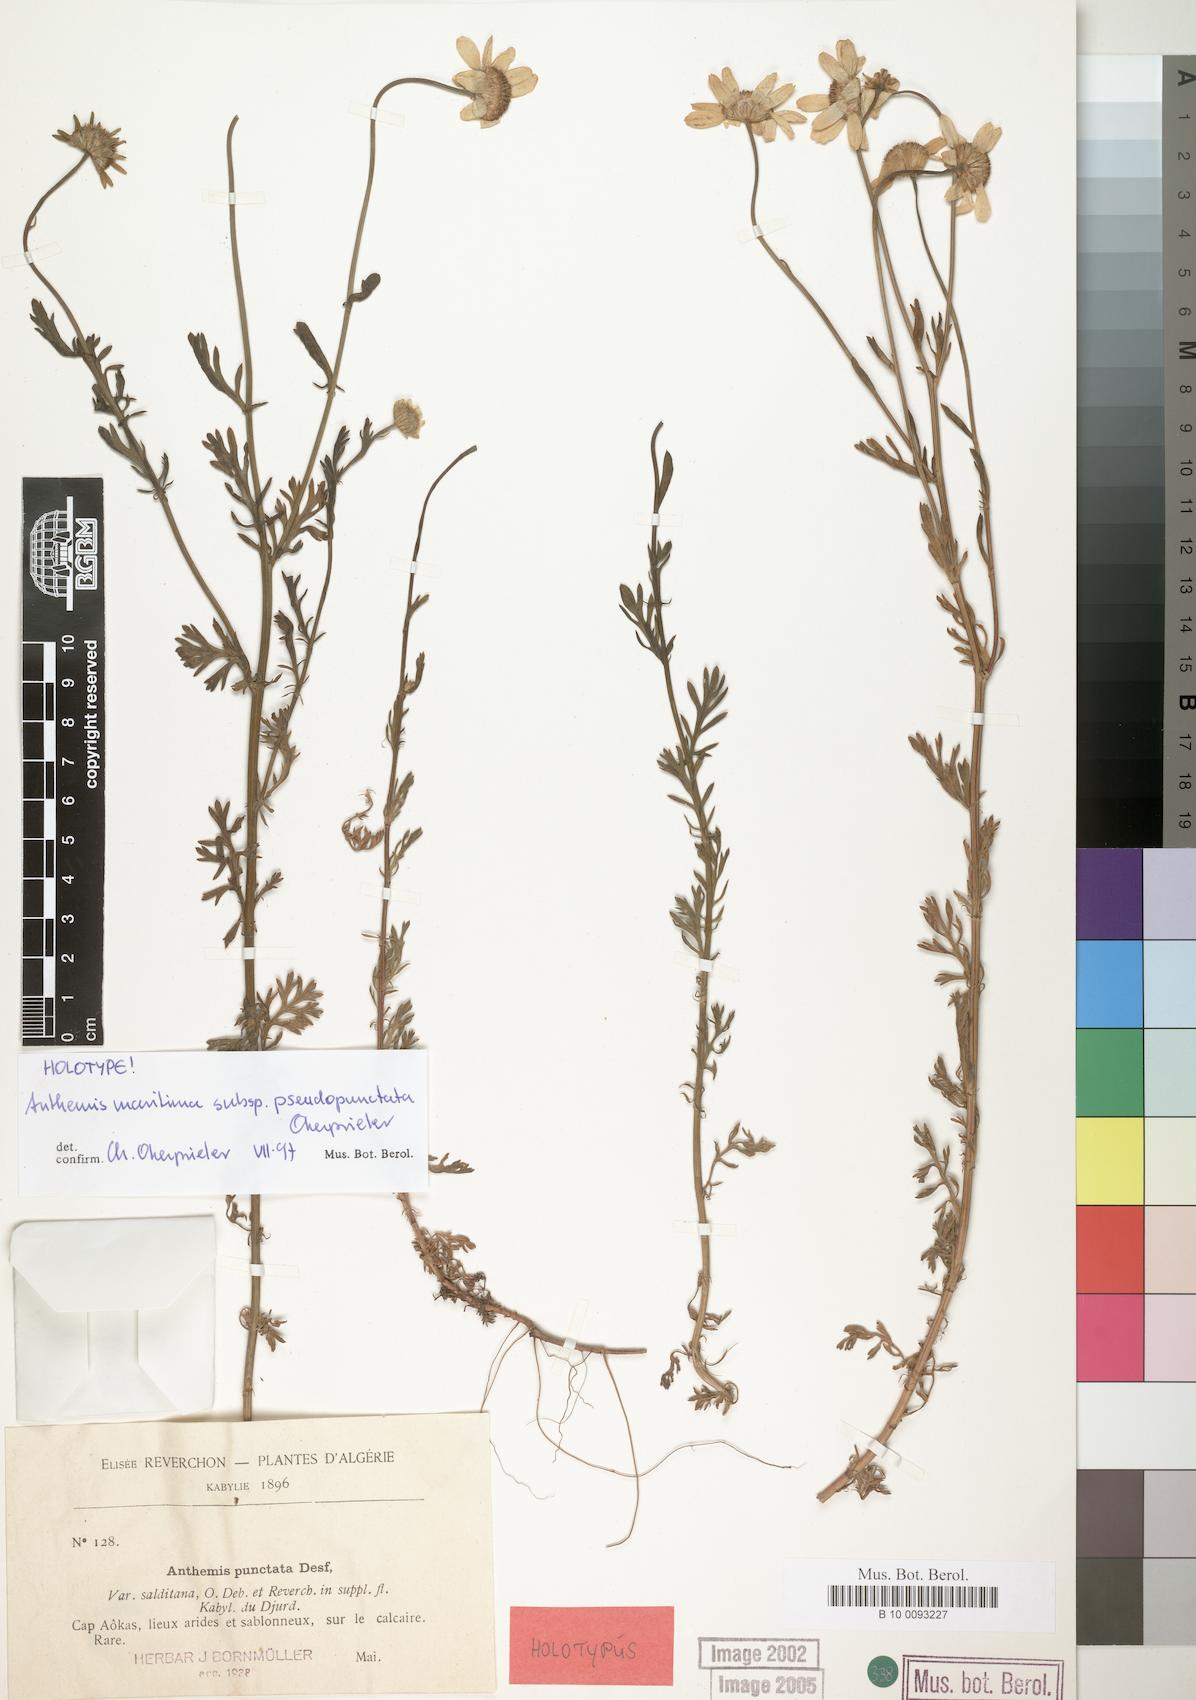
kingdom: Plantae
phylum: Tracheophyta
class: Magnoliopsida
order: Asterales
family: Asteraceae
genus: Anthemis
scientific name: Anthemis maritima
